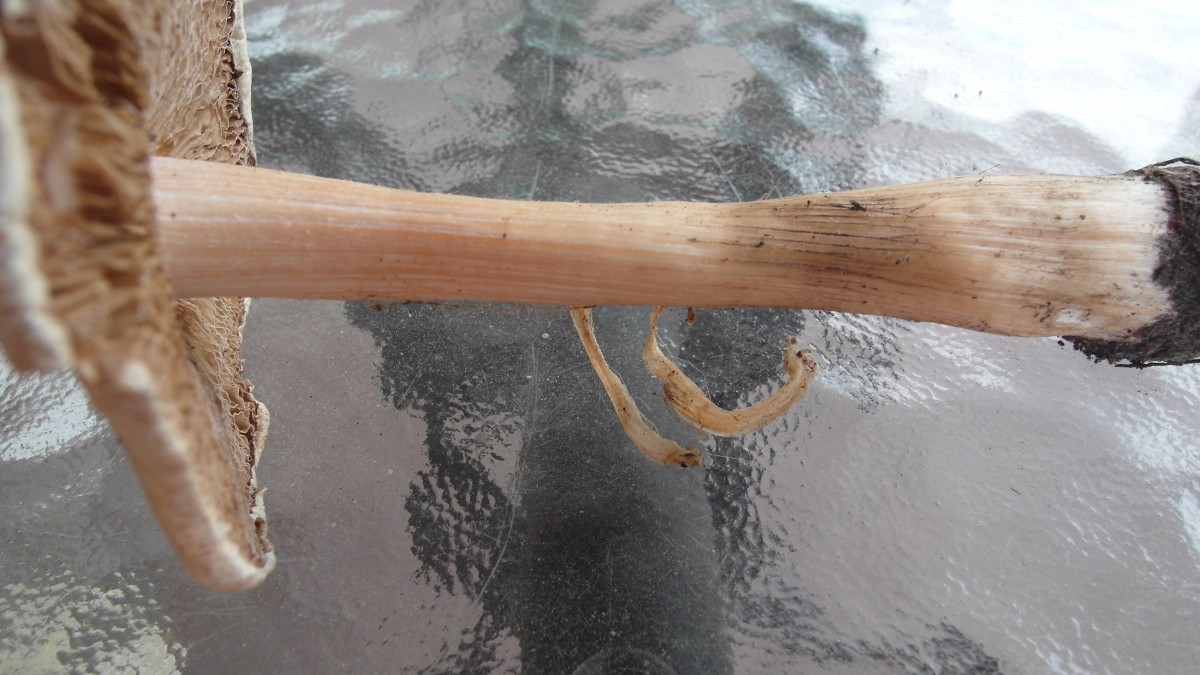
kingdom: Fungi
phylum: Basidiomycota
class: Agaricomycetes
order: Agaricales
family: Inocybaceae
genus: Inosperma
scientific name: Inosperma erubescens
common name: giftig trævlhat
